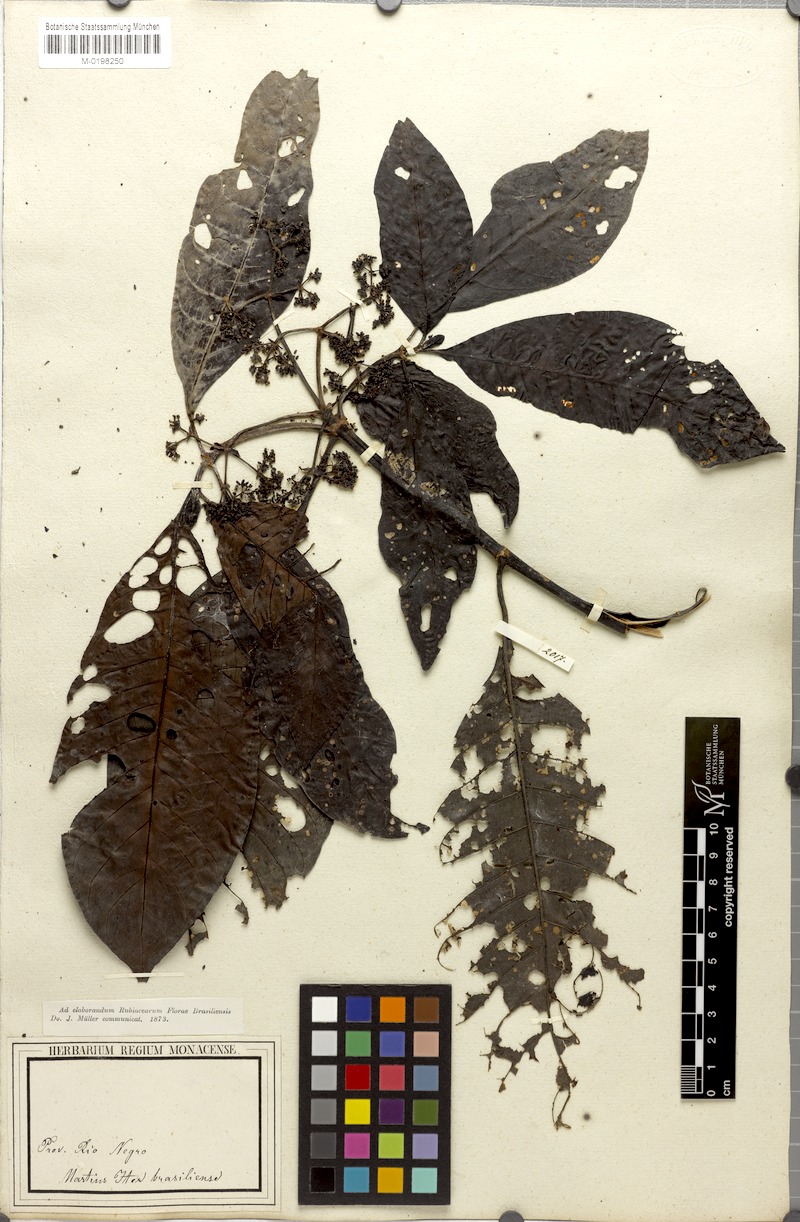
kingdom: Plantae
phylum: Tracheophyta
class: Magnoliopsida
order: Gentianales
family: Rubiaceae
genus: Psychotria
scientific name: Psychotria guianensis
